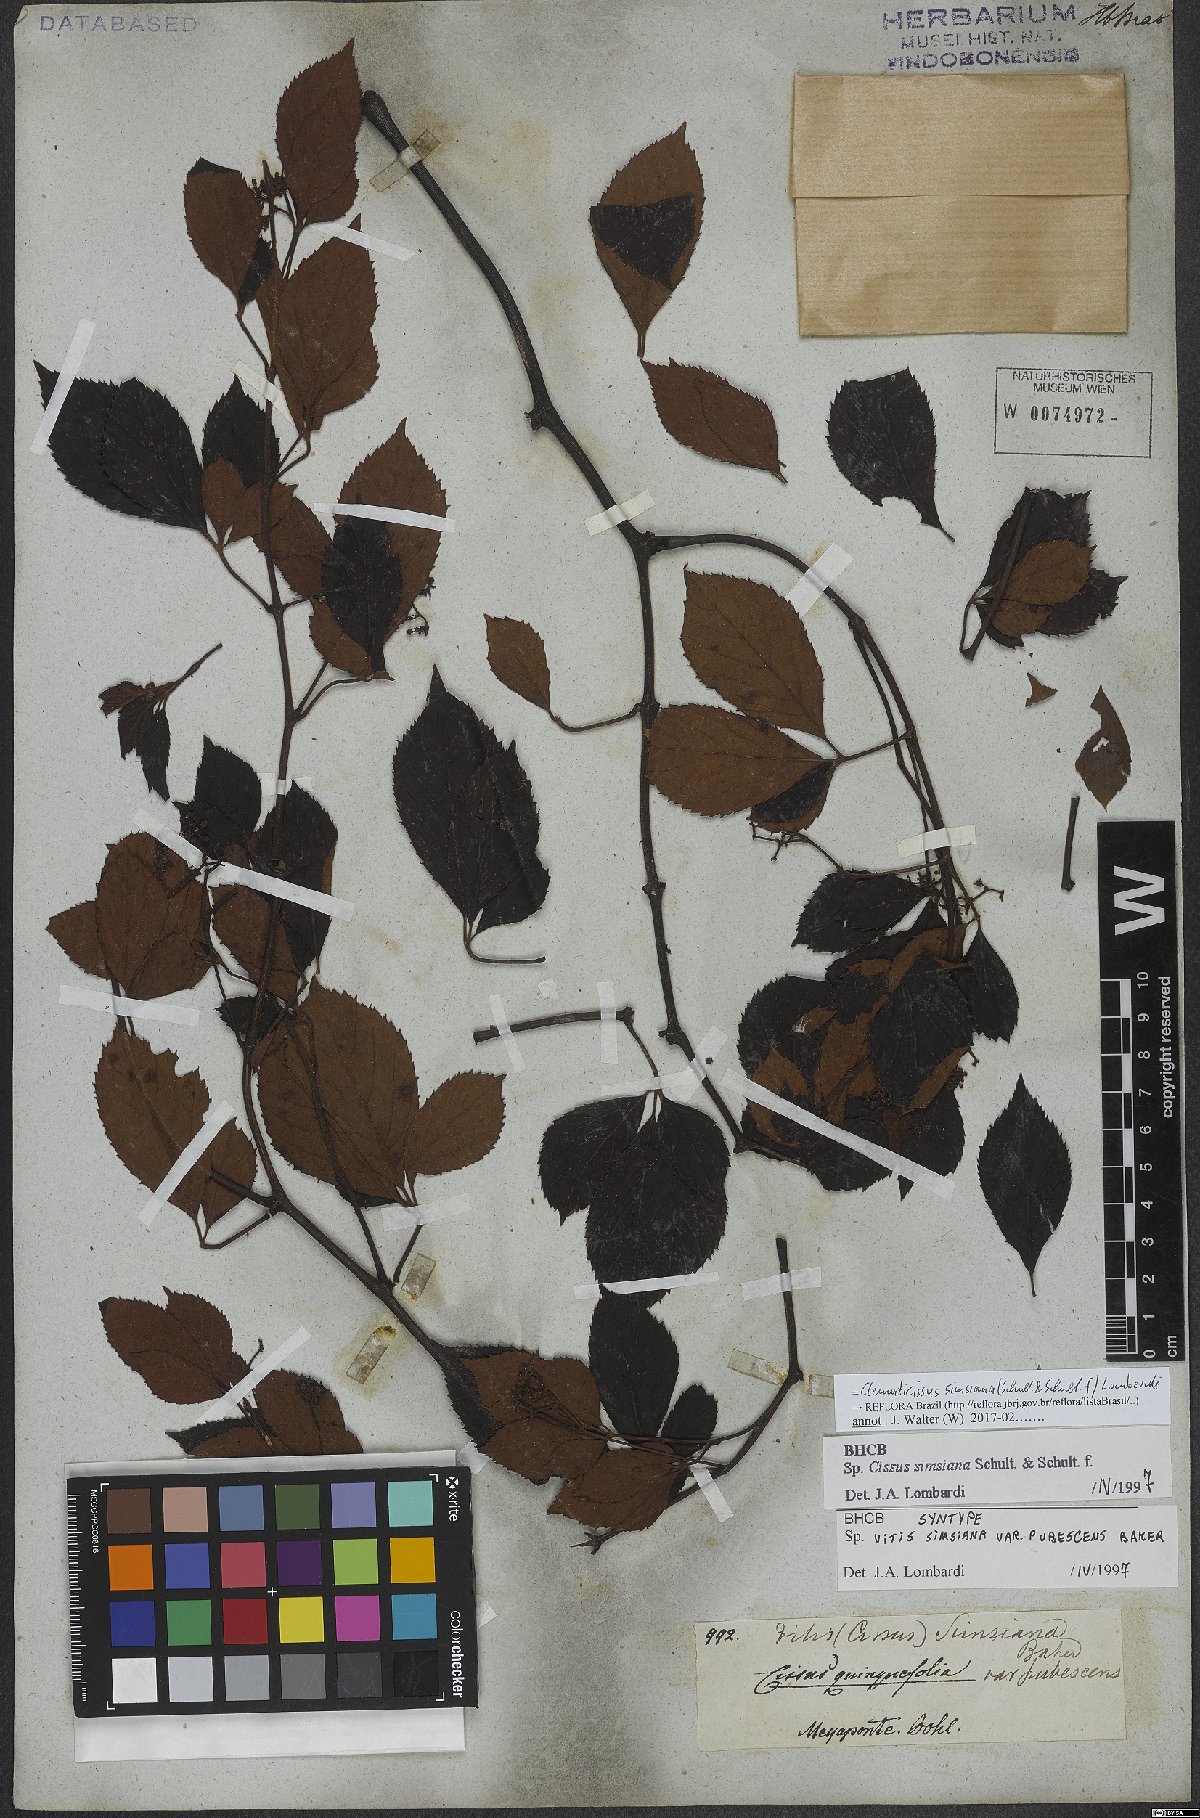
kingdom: Plantae
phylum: Tracheophyta
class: Magnoliopsida
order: Vitales
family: Vitaceae
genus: Clematicissus
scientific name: Clematicissus simsiana
